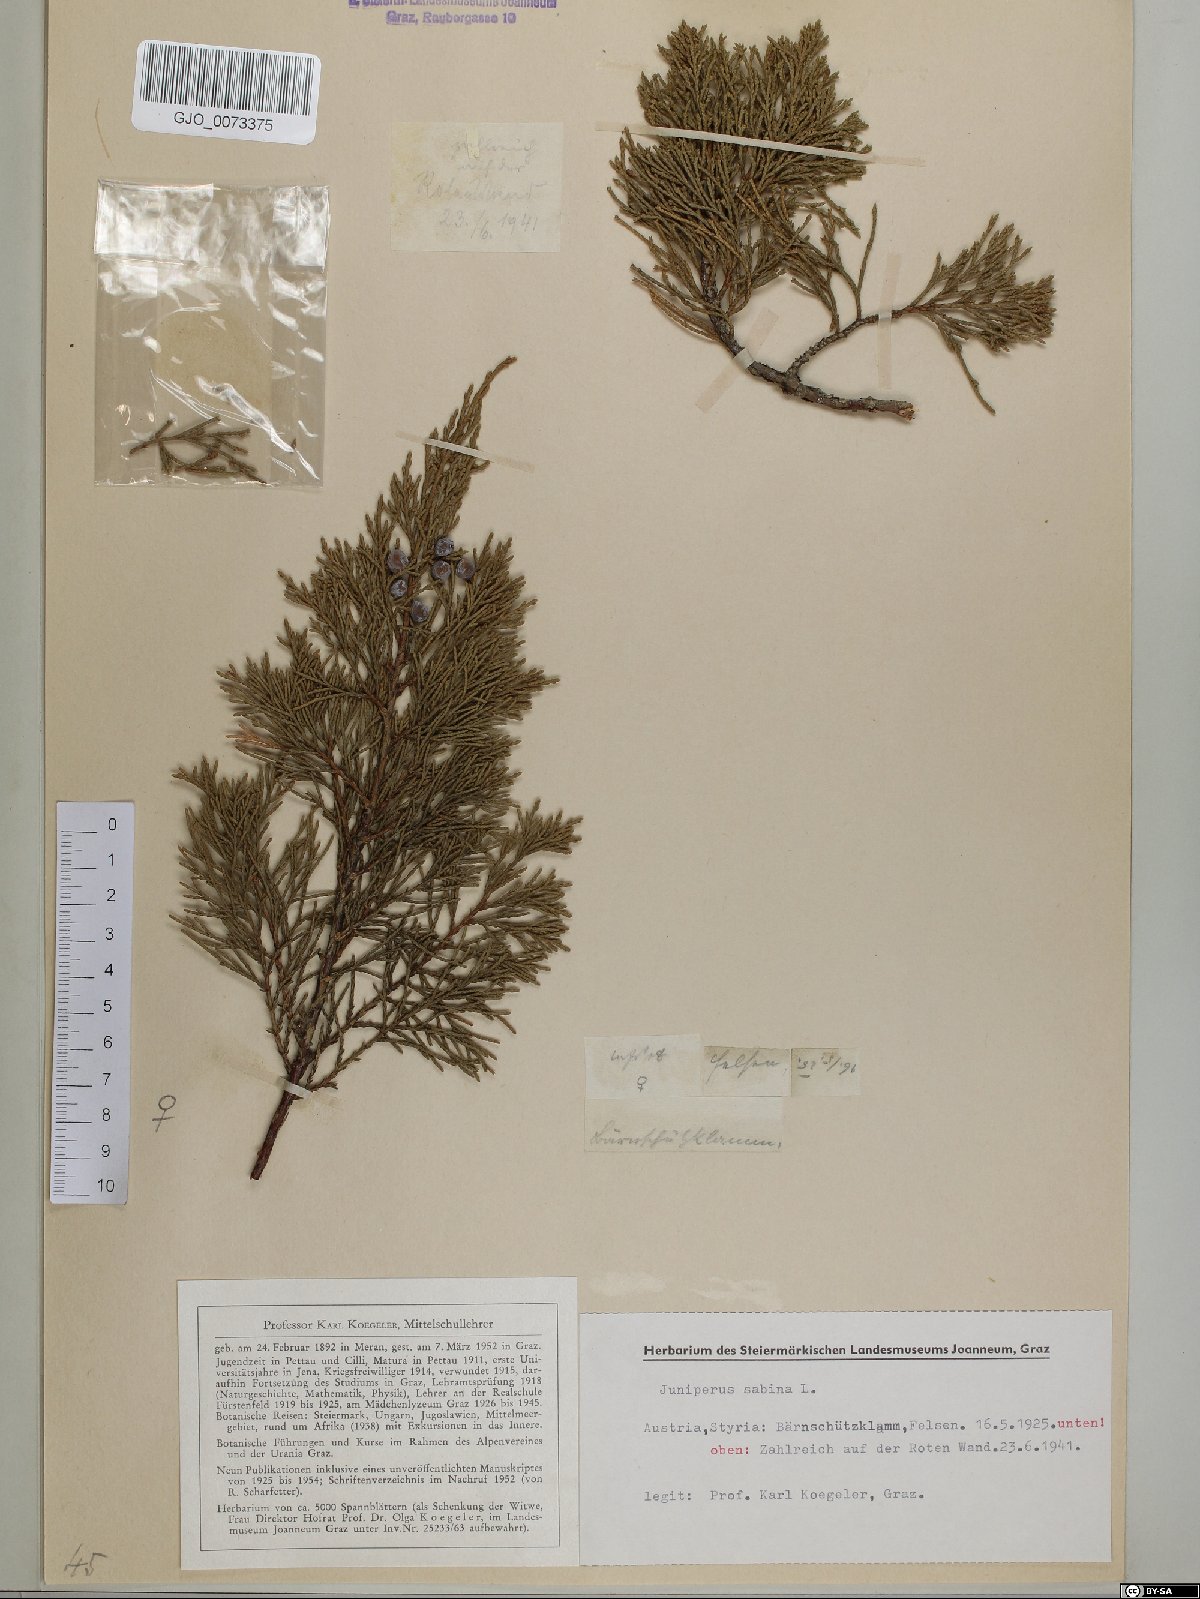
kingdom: Plantae
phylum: Tracheophyta
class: Pinopsida
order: Pinales
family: Cupressaceae
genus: Juniperus
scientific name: Juniperus sabina
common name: Savin
